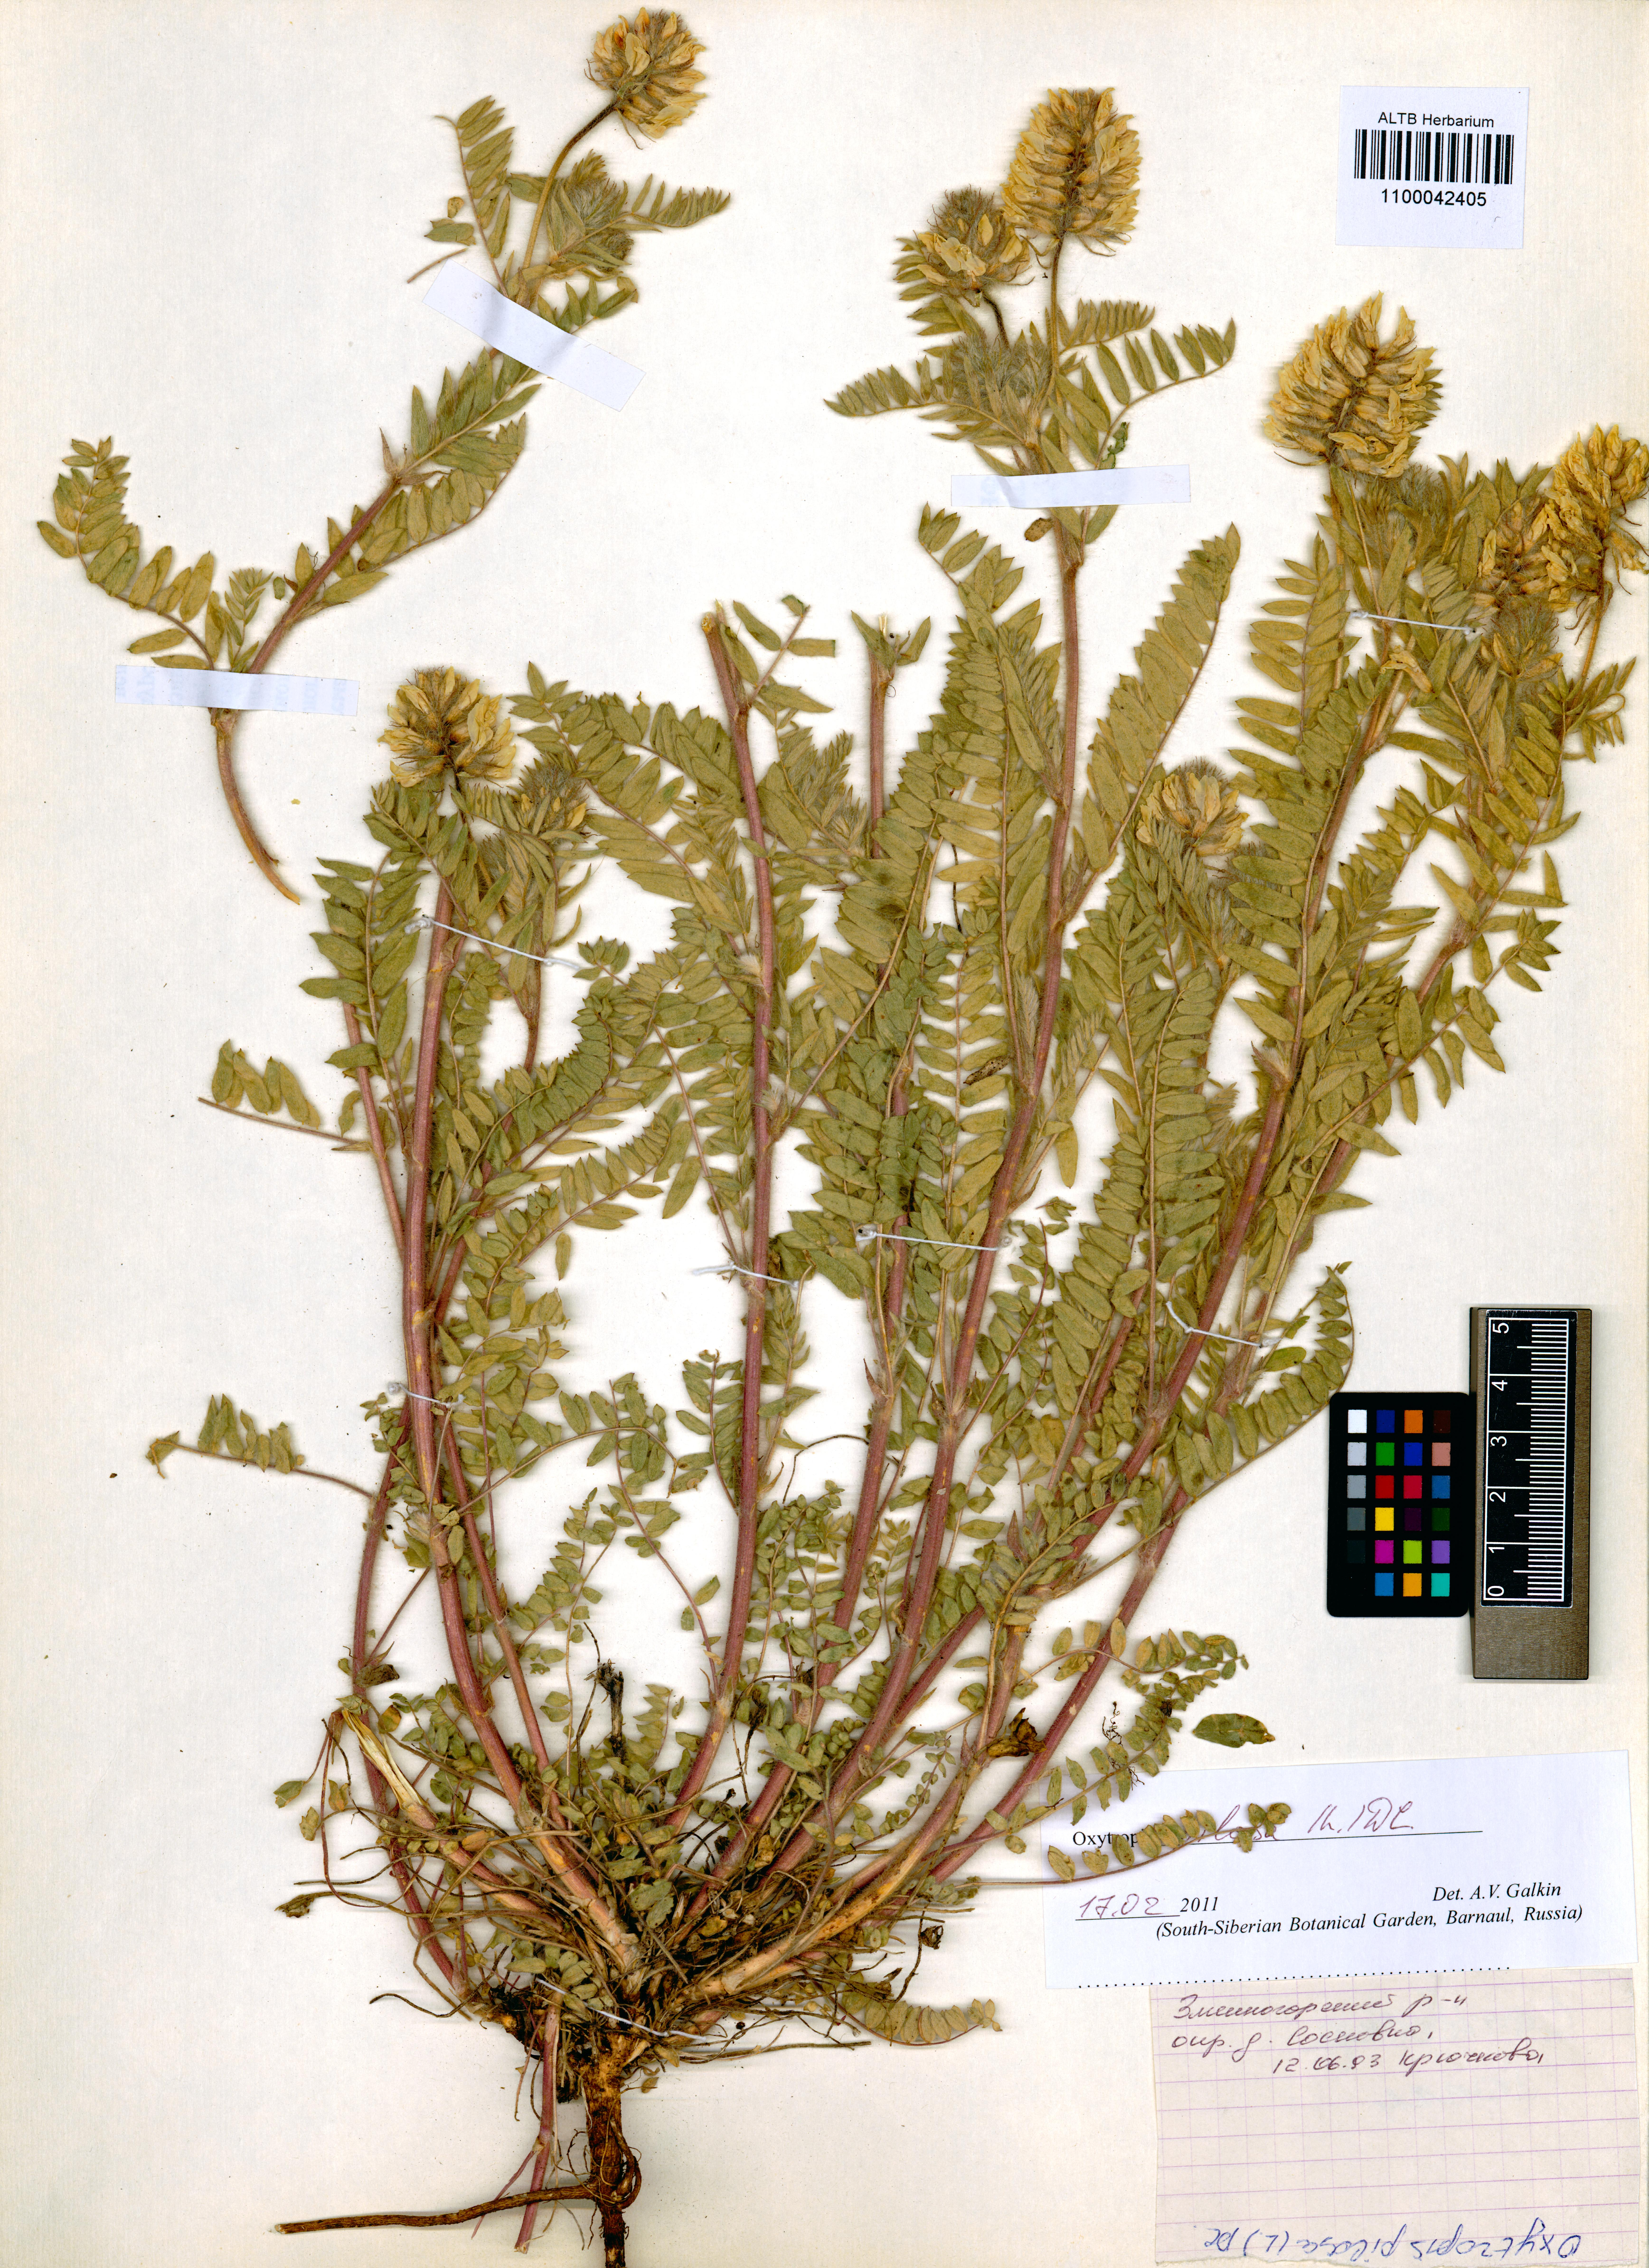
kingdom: Plantae
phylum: Tracheophyta
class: Magnoliopsida
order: Fabales
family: Fabaceae
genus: Oxytropis
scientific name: Oxytropis pilosa
